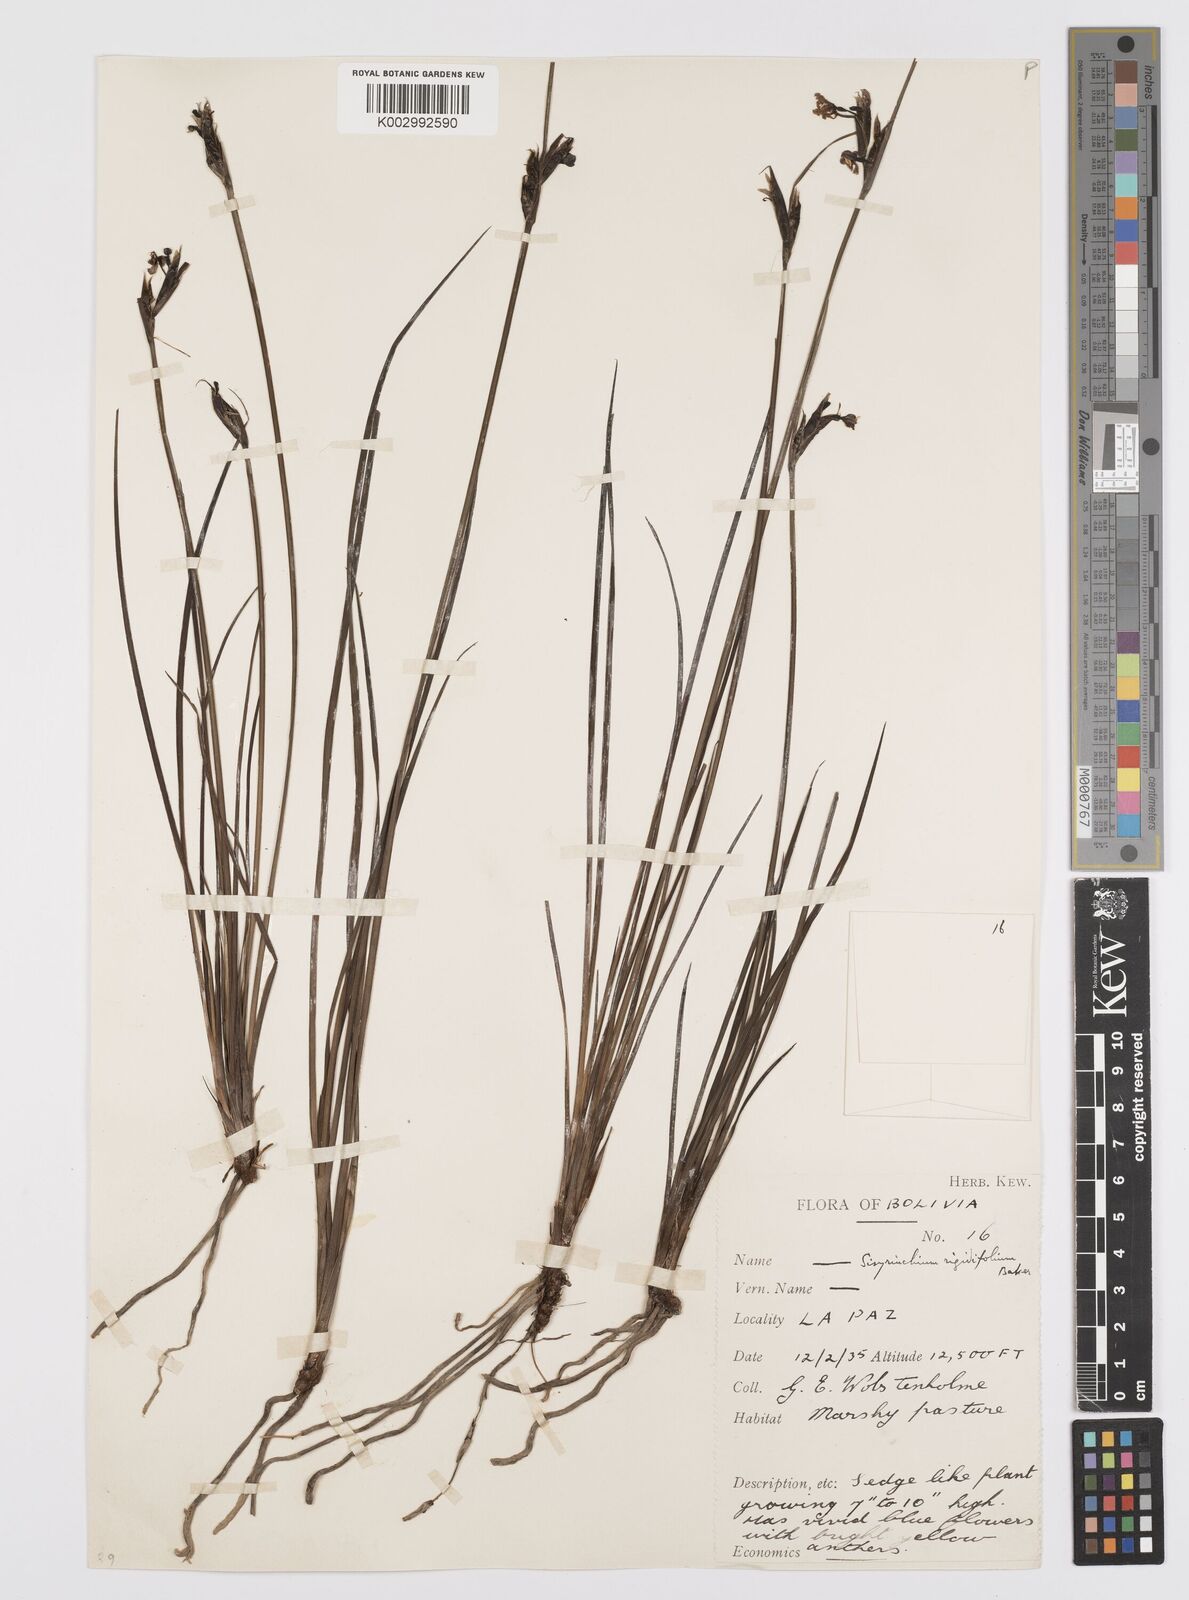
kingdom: Plantae
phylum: Tracheophyta
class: Liliopsida
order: Asparagales
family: Iridaceae
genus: Sisyrinchium
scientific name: Sisyrinchium rigidifolium
